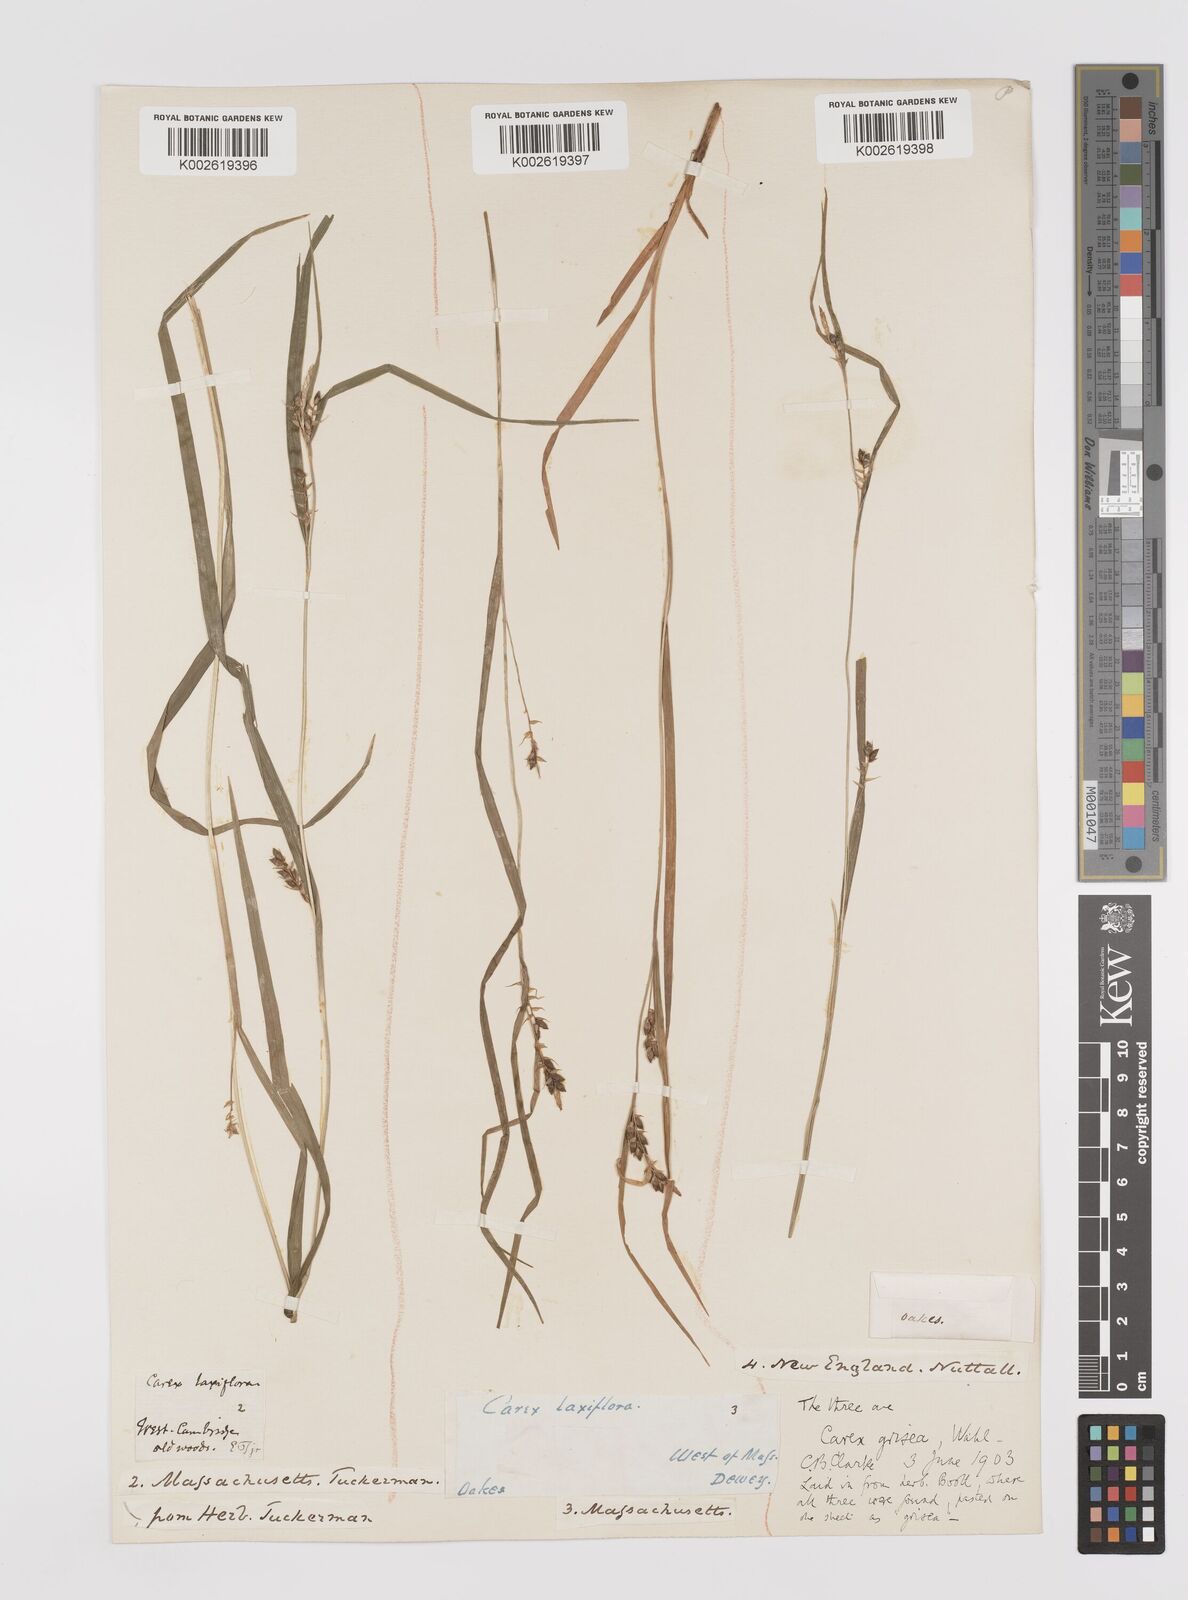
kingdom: Plantae
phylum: Tracheophyta
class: Liliopsida
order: Poales
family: Cyperaceae
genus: Carex
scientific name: Carex grisea
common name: Eastern narrow-leaved sedge
